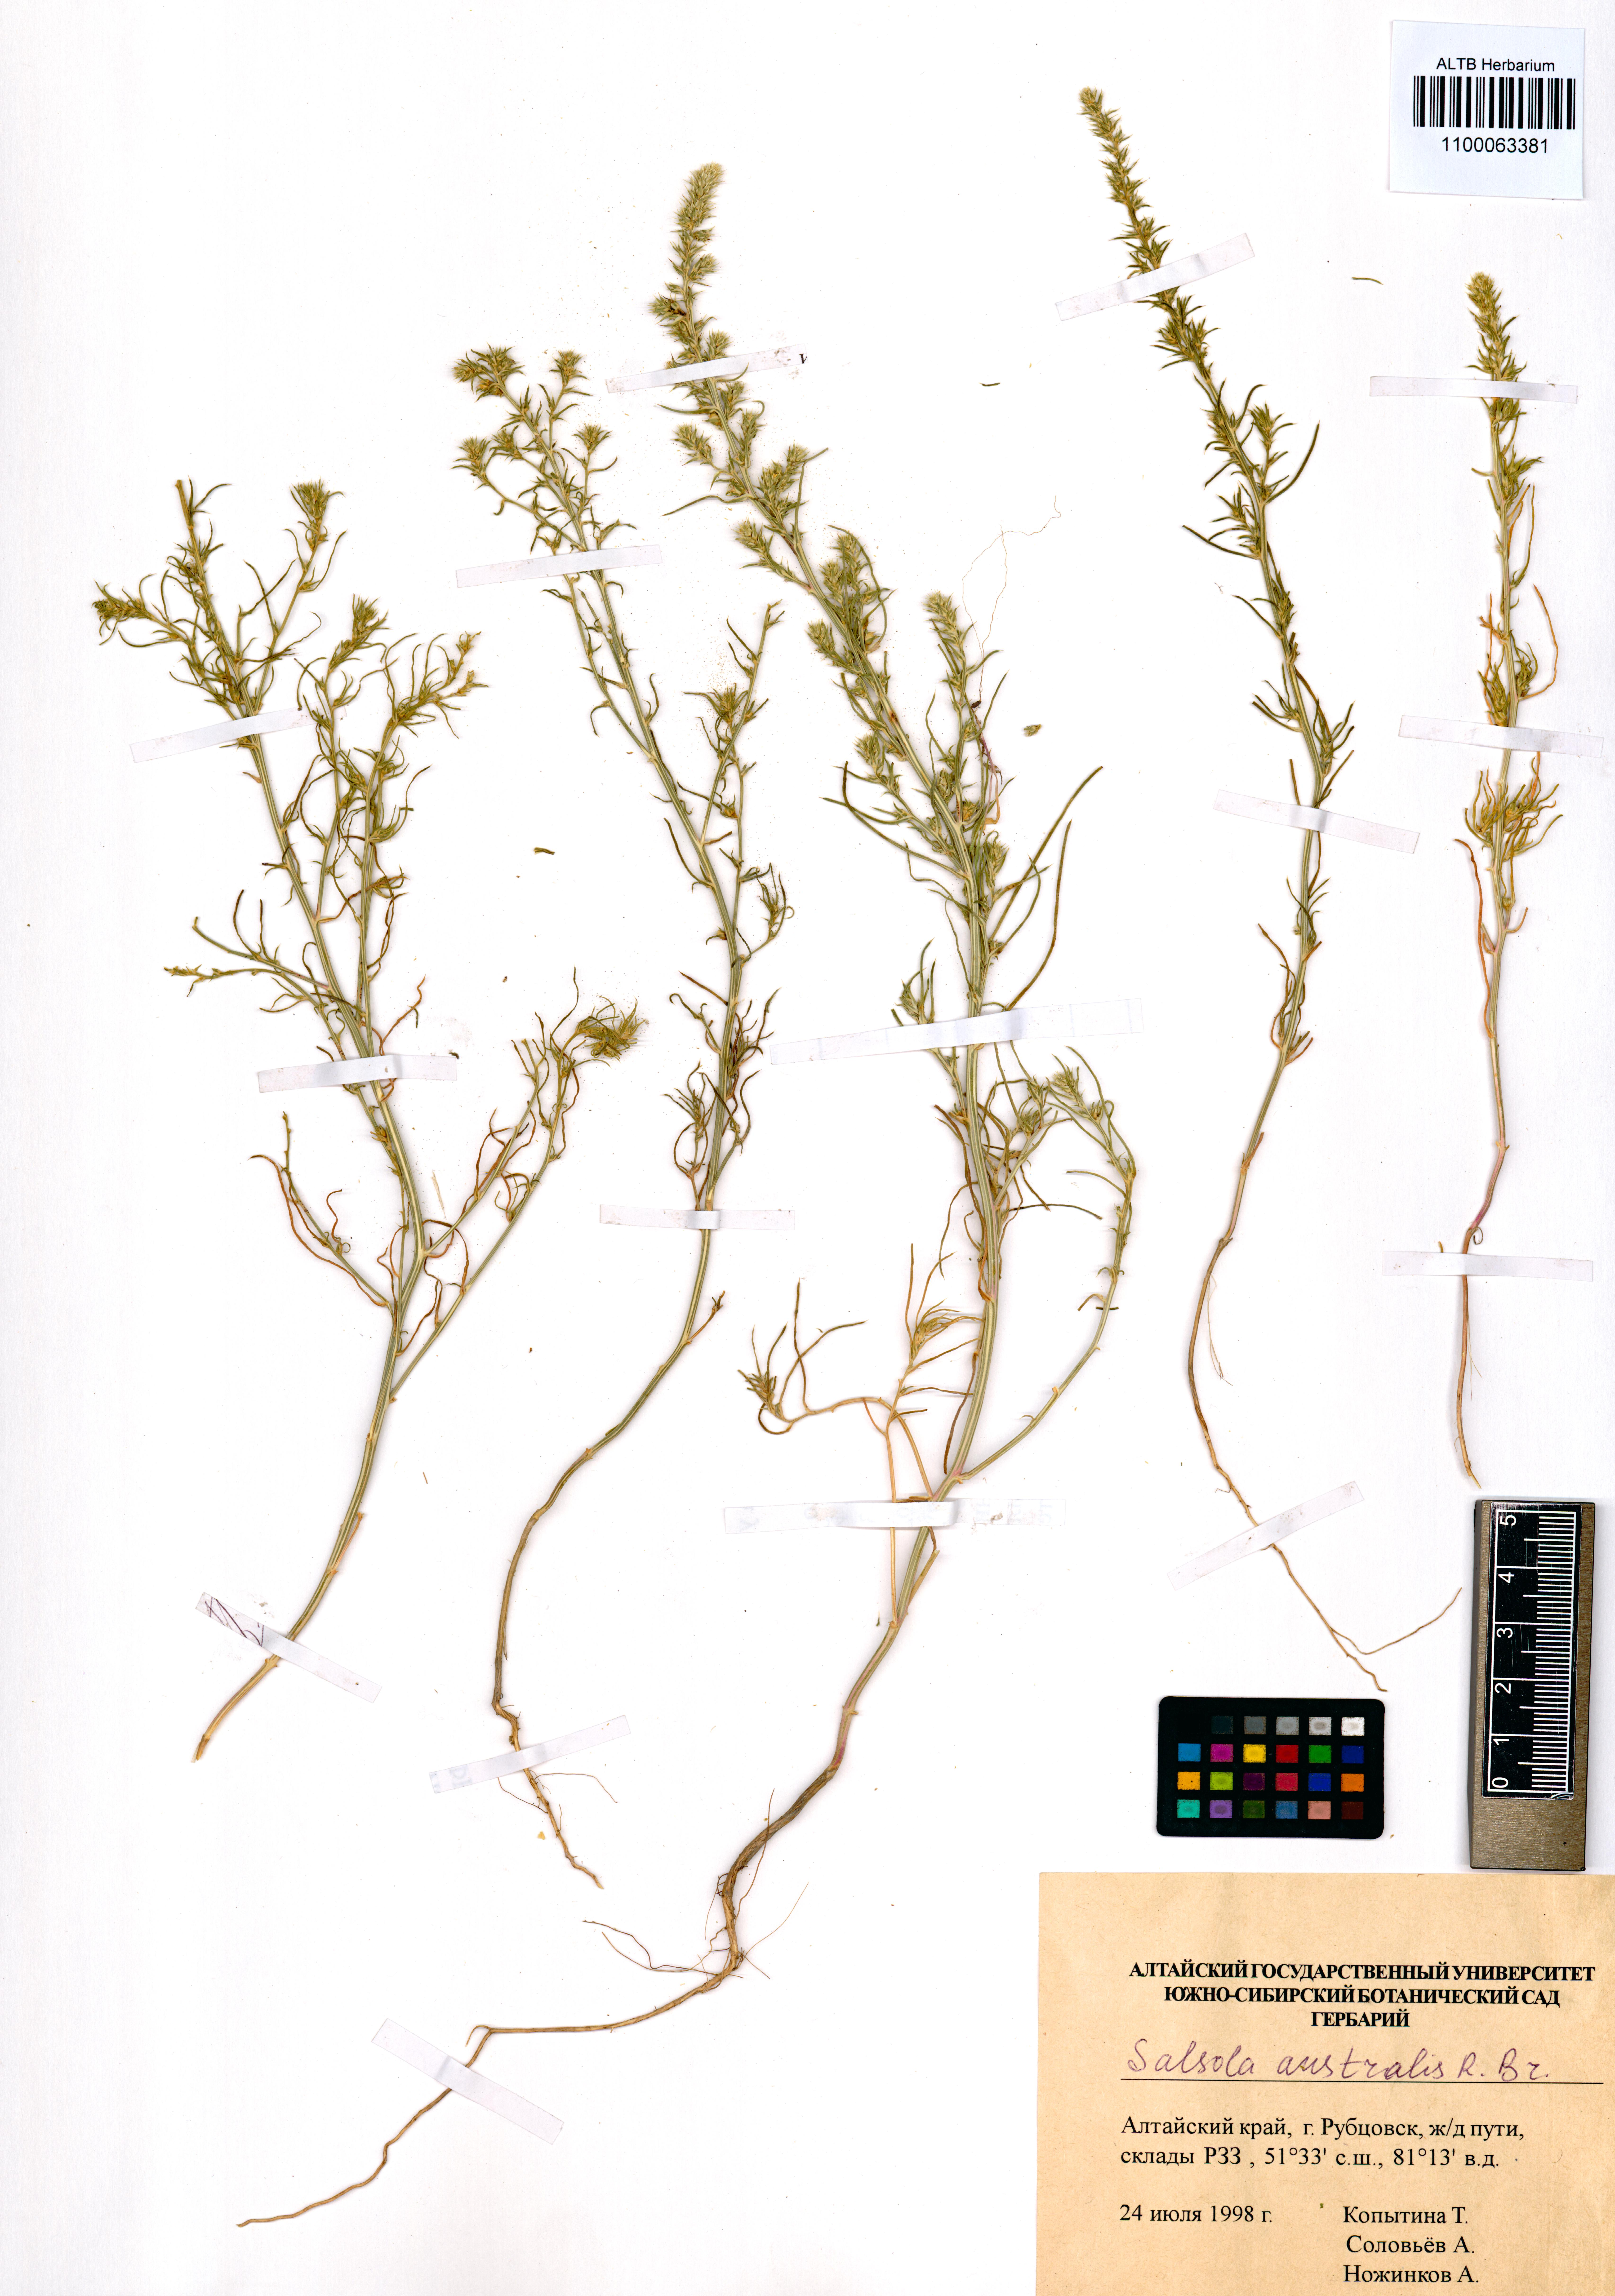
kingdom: Plantae
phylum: Tracheophyta
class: Magnoliopsida
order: Caryophyllales
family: Amaranthaceae
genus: Salsola
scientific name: Salsola australis
